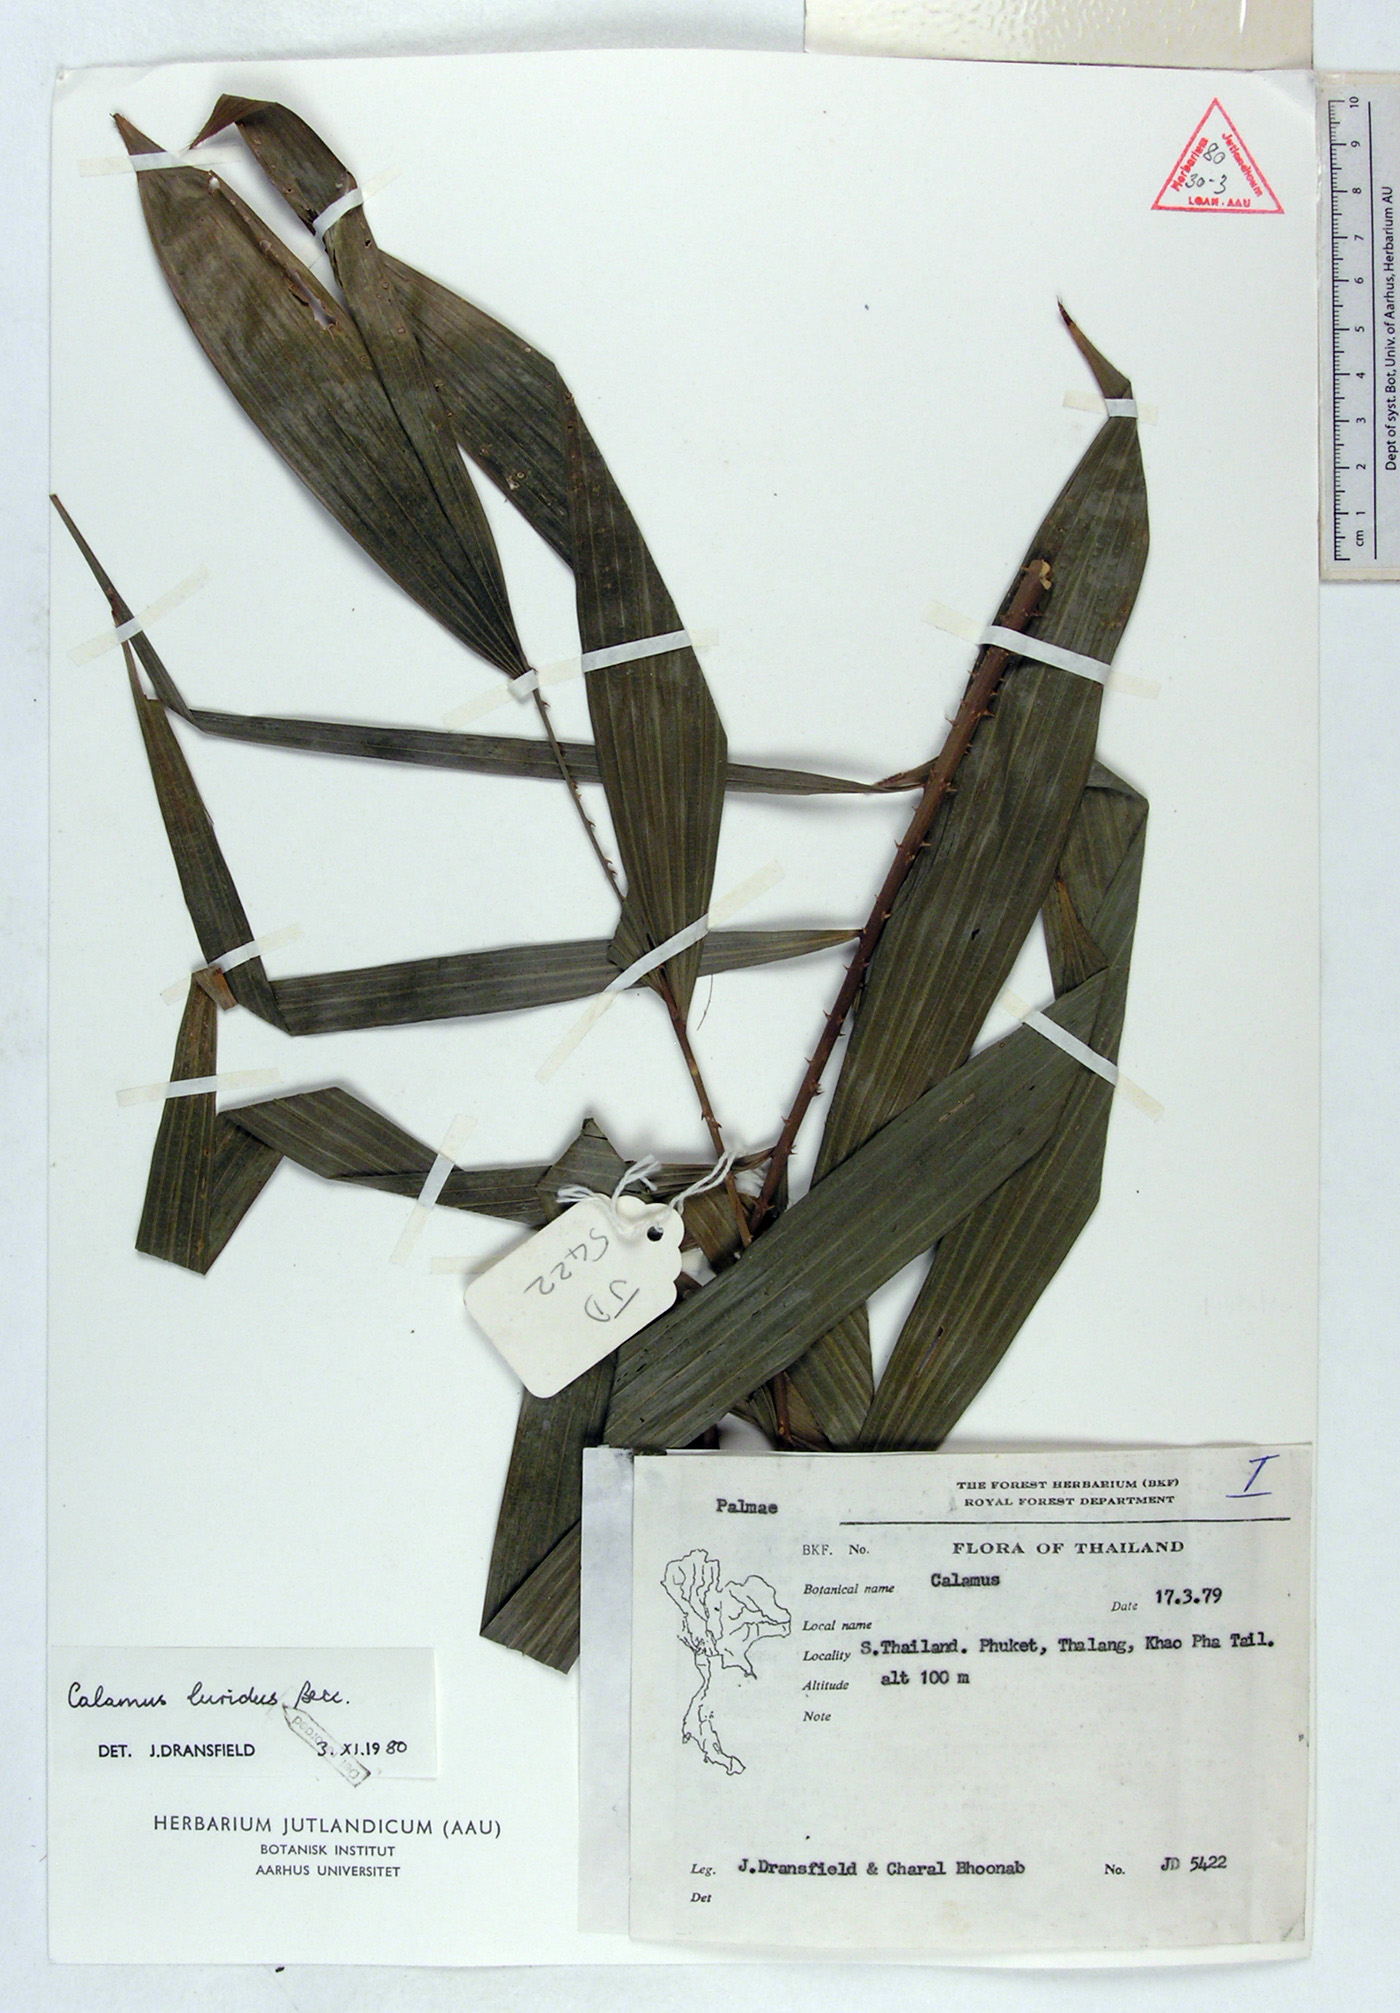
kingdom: Plantae
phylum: Tracheophyta
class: Liliopsida
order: Arecales
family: Arecaceae
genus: Calamus
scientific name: Calamus micranthus
